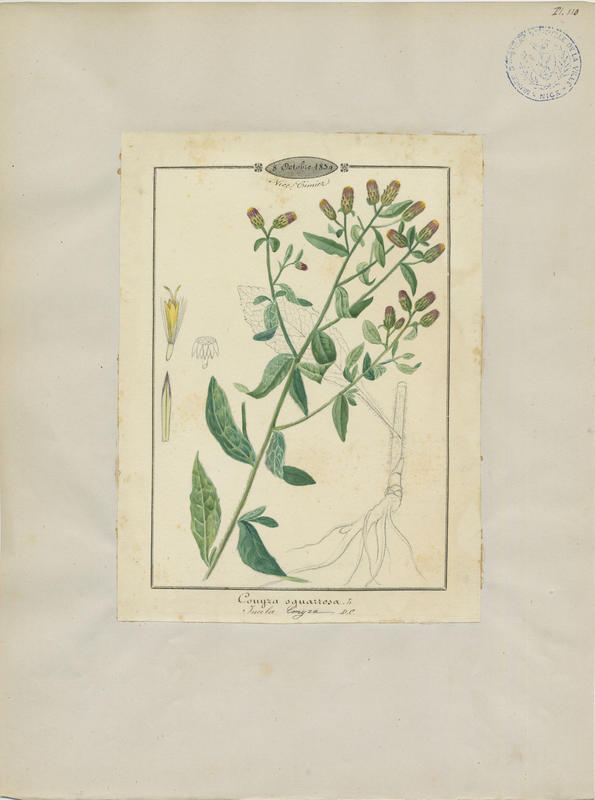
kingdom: Plantae
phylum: Tracheophyta
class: Magnoliopsida
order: Asterales
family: Asteraceae
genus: Pentanema
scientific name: Pentanema squarrosum
